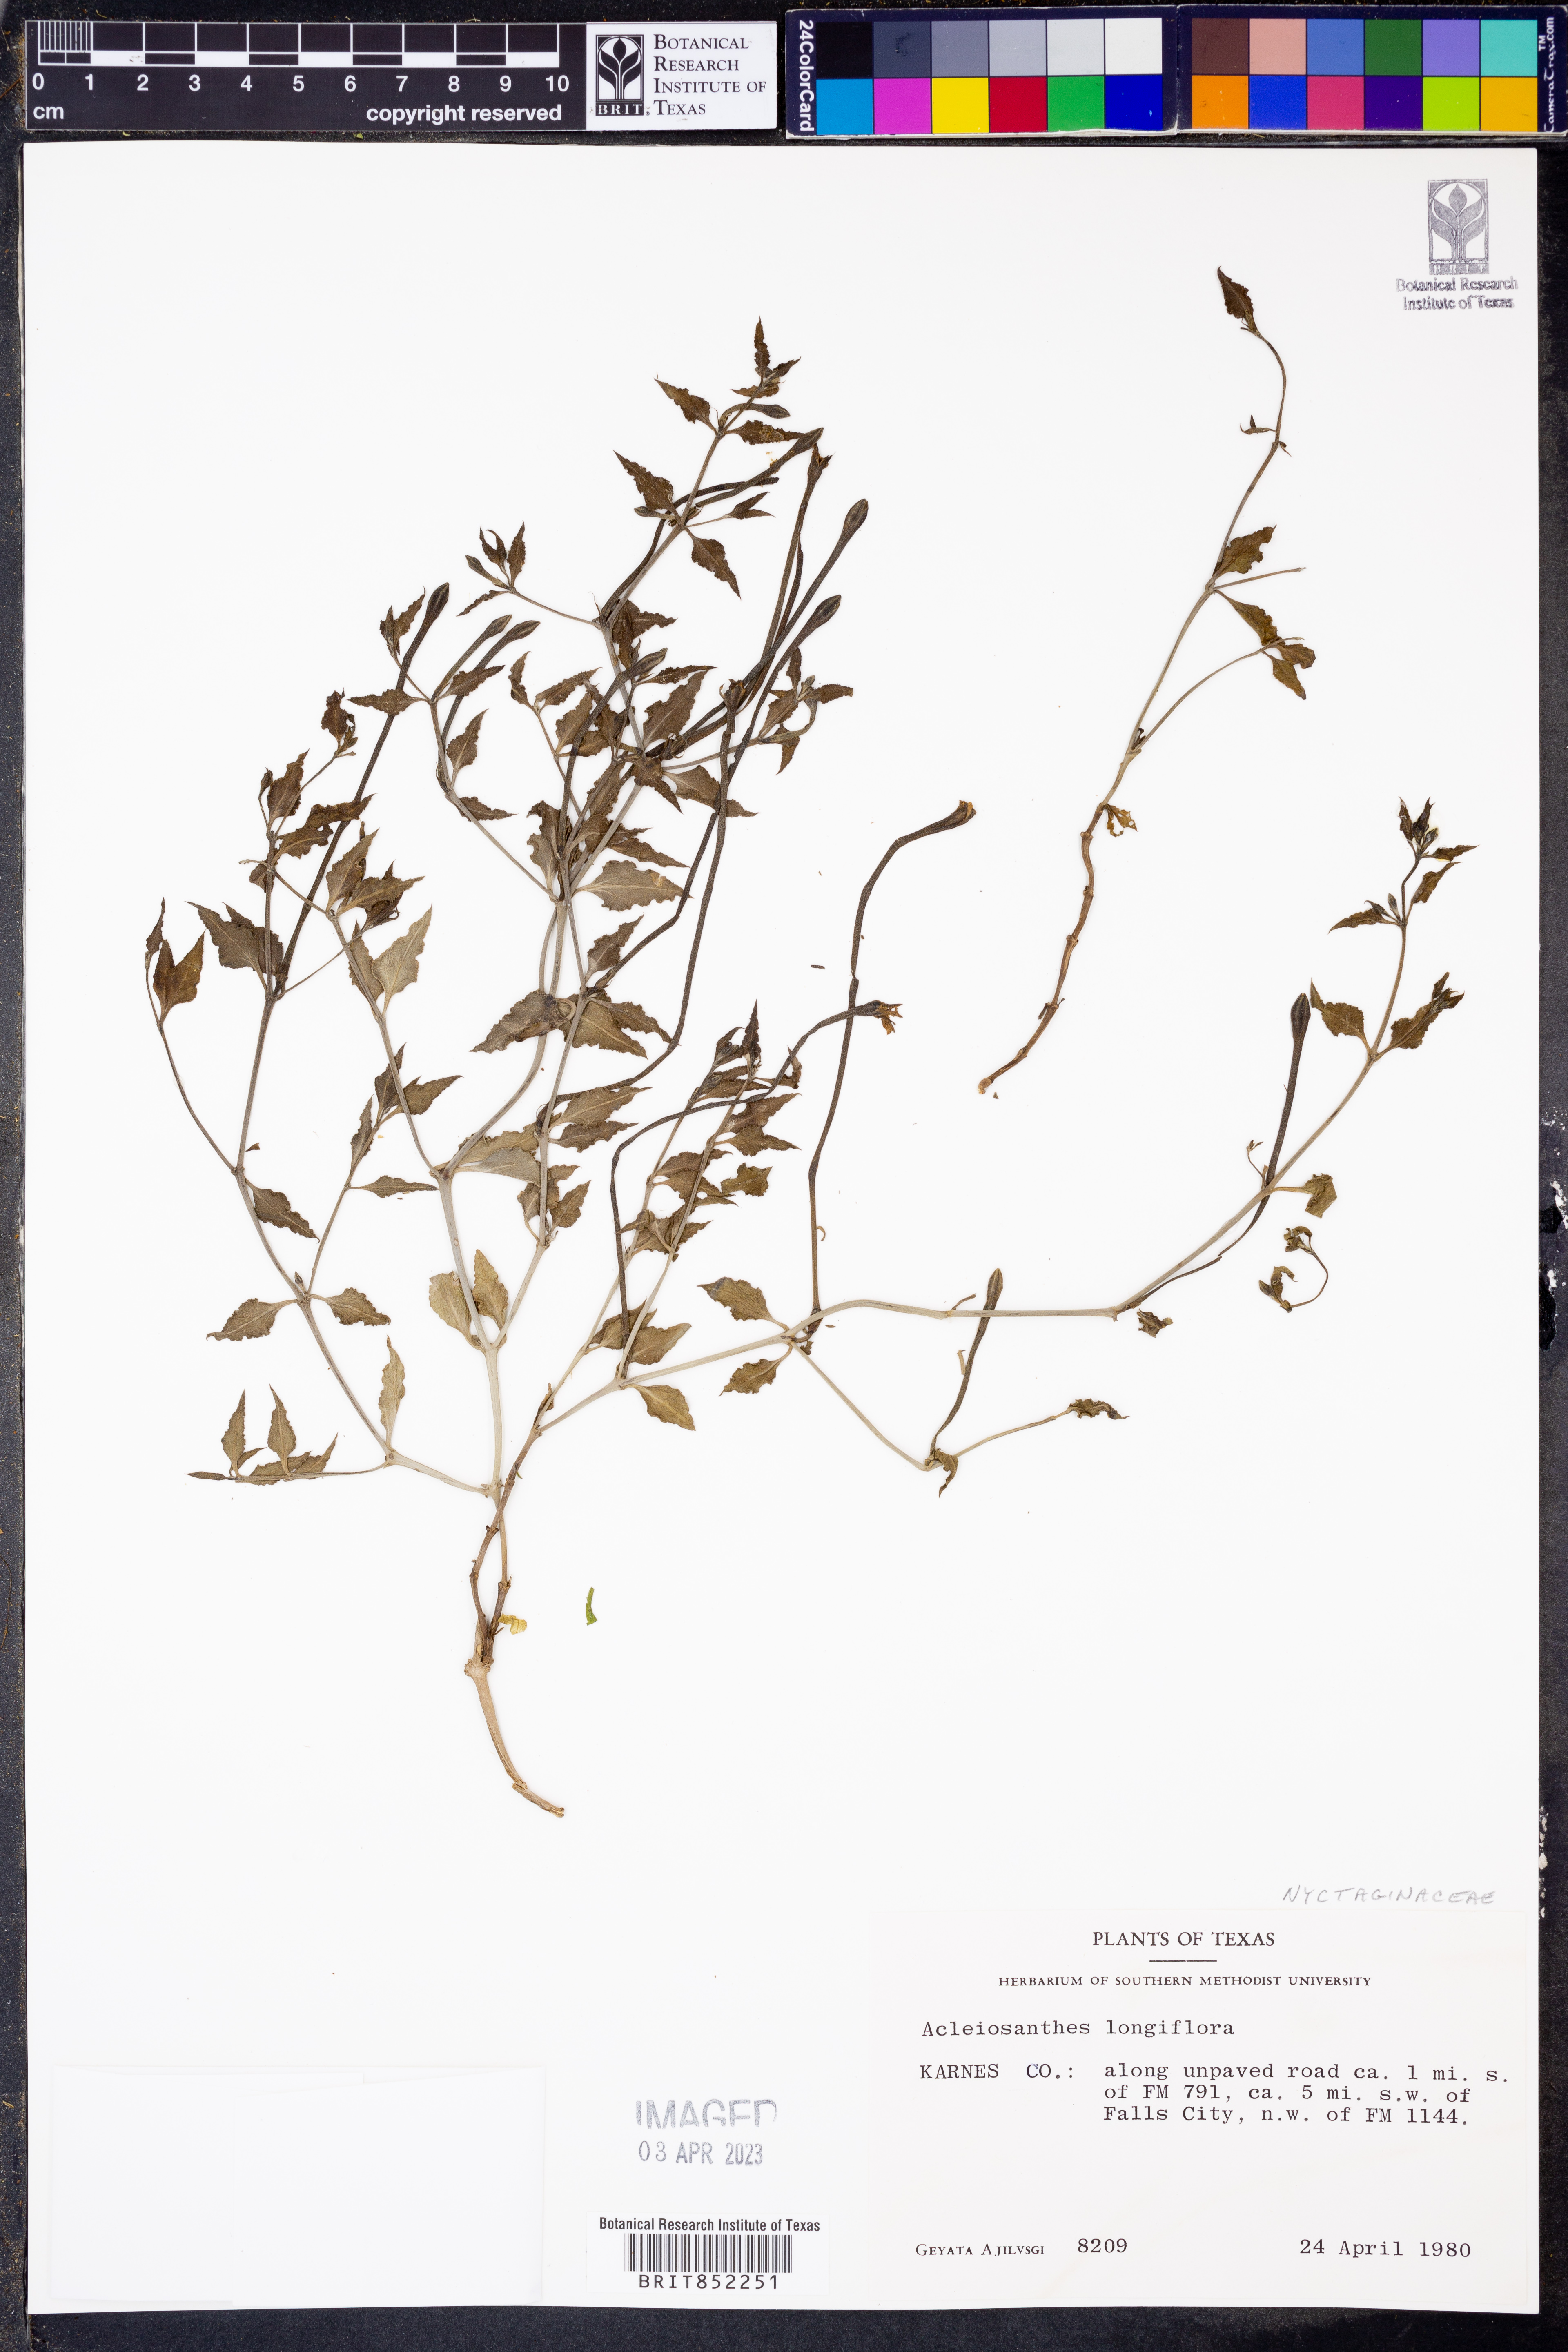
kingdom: Plantae
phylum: Tracheophyta
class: Magnoliopsida
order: Caryophyllales
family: Nyctaginaceae
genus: Acleisanthes
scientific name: Acleisanthes longiflora
